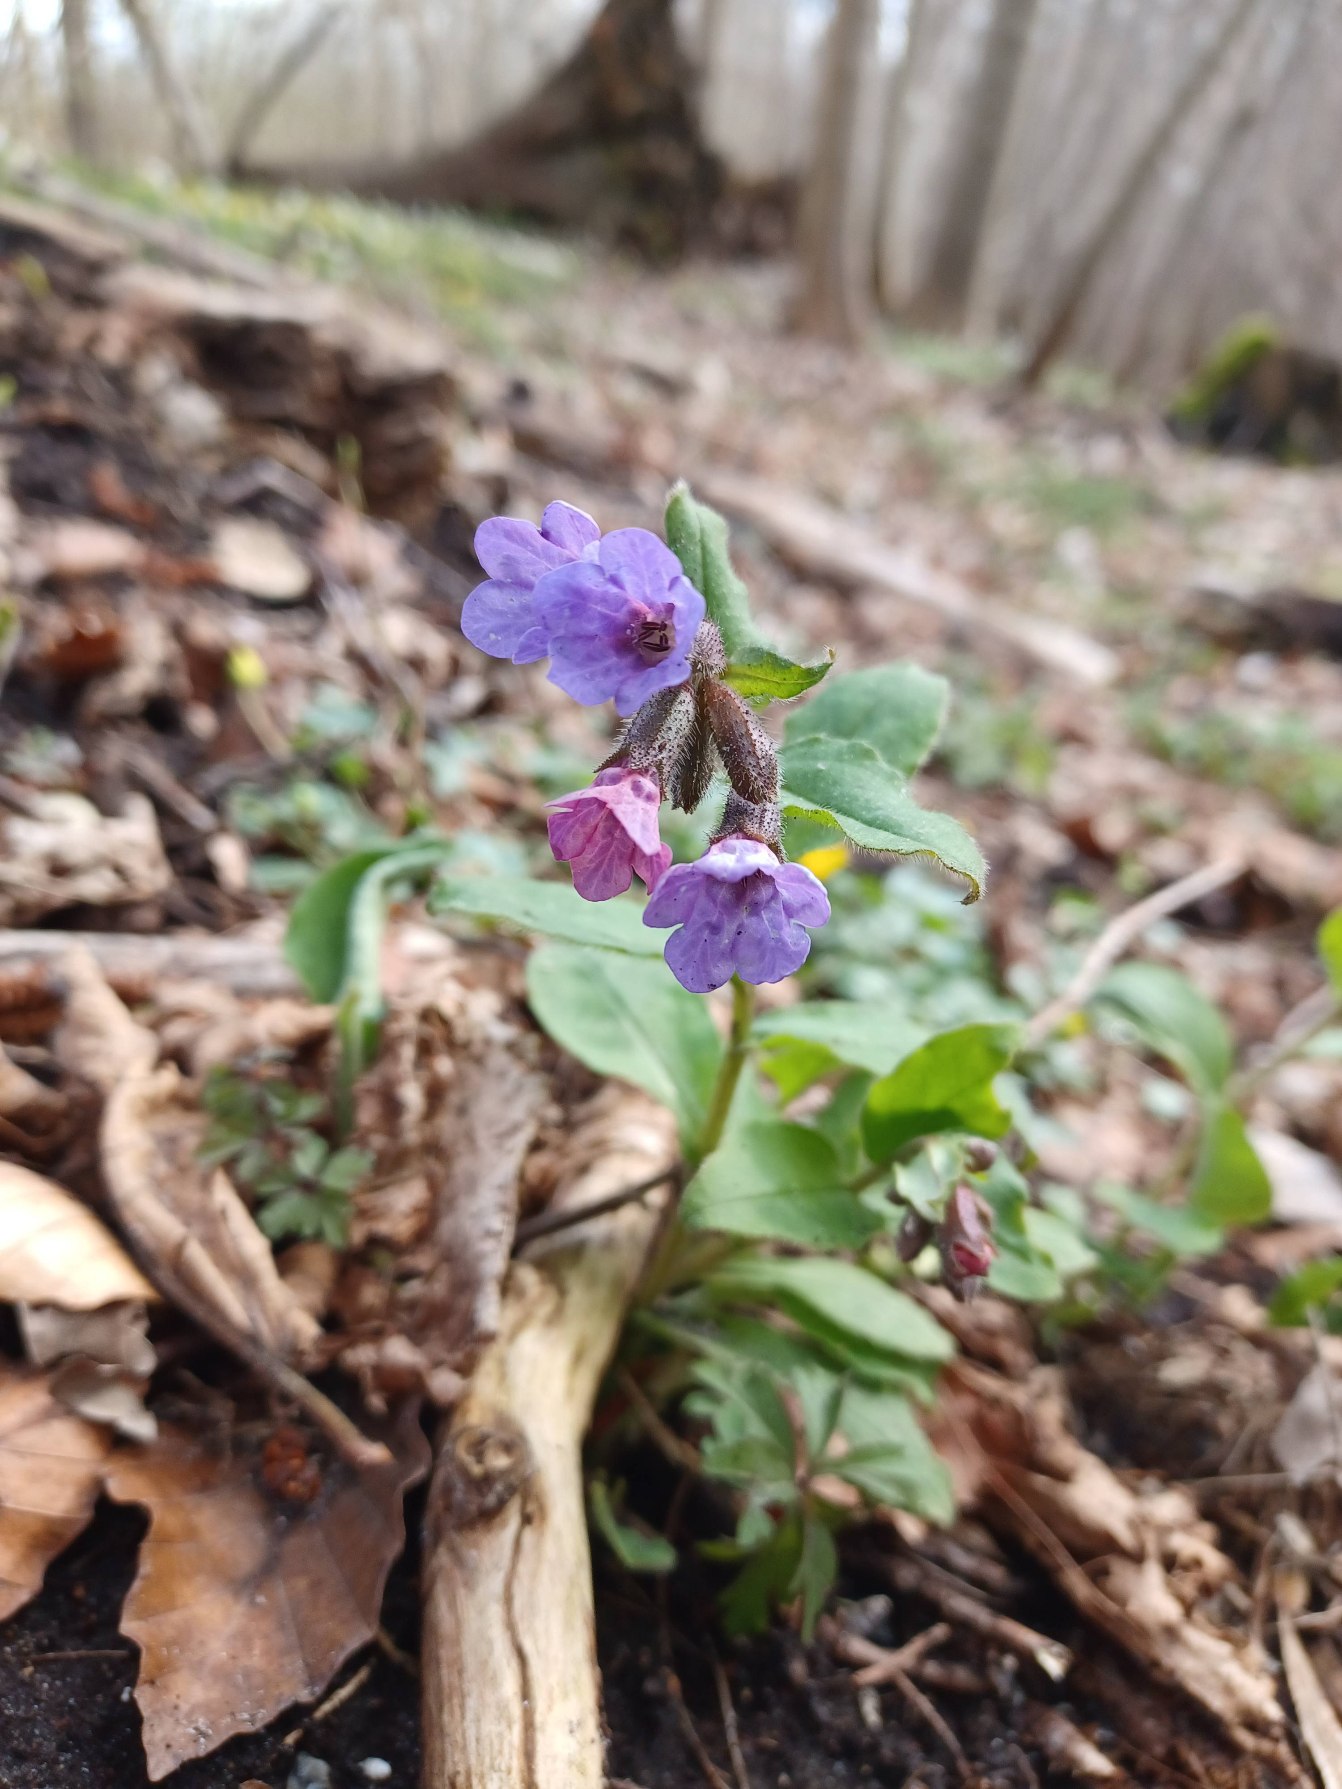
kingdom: Plantae
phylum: Tracheophyta
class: Magnoliopsida
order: Boraginales
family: Boraginaceae
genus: Pulmonaria
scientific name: Pulmonaria
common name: Lungeurtslægten
